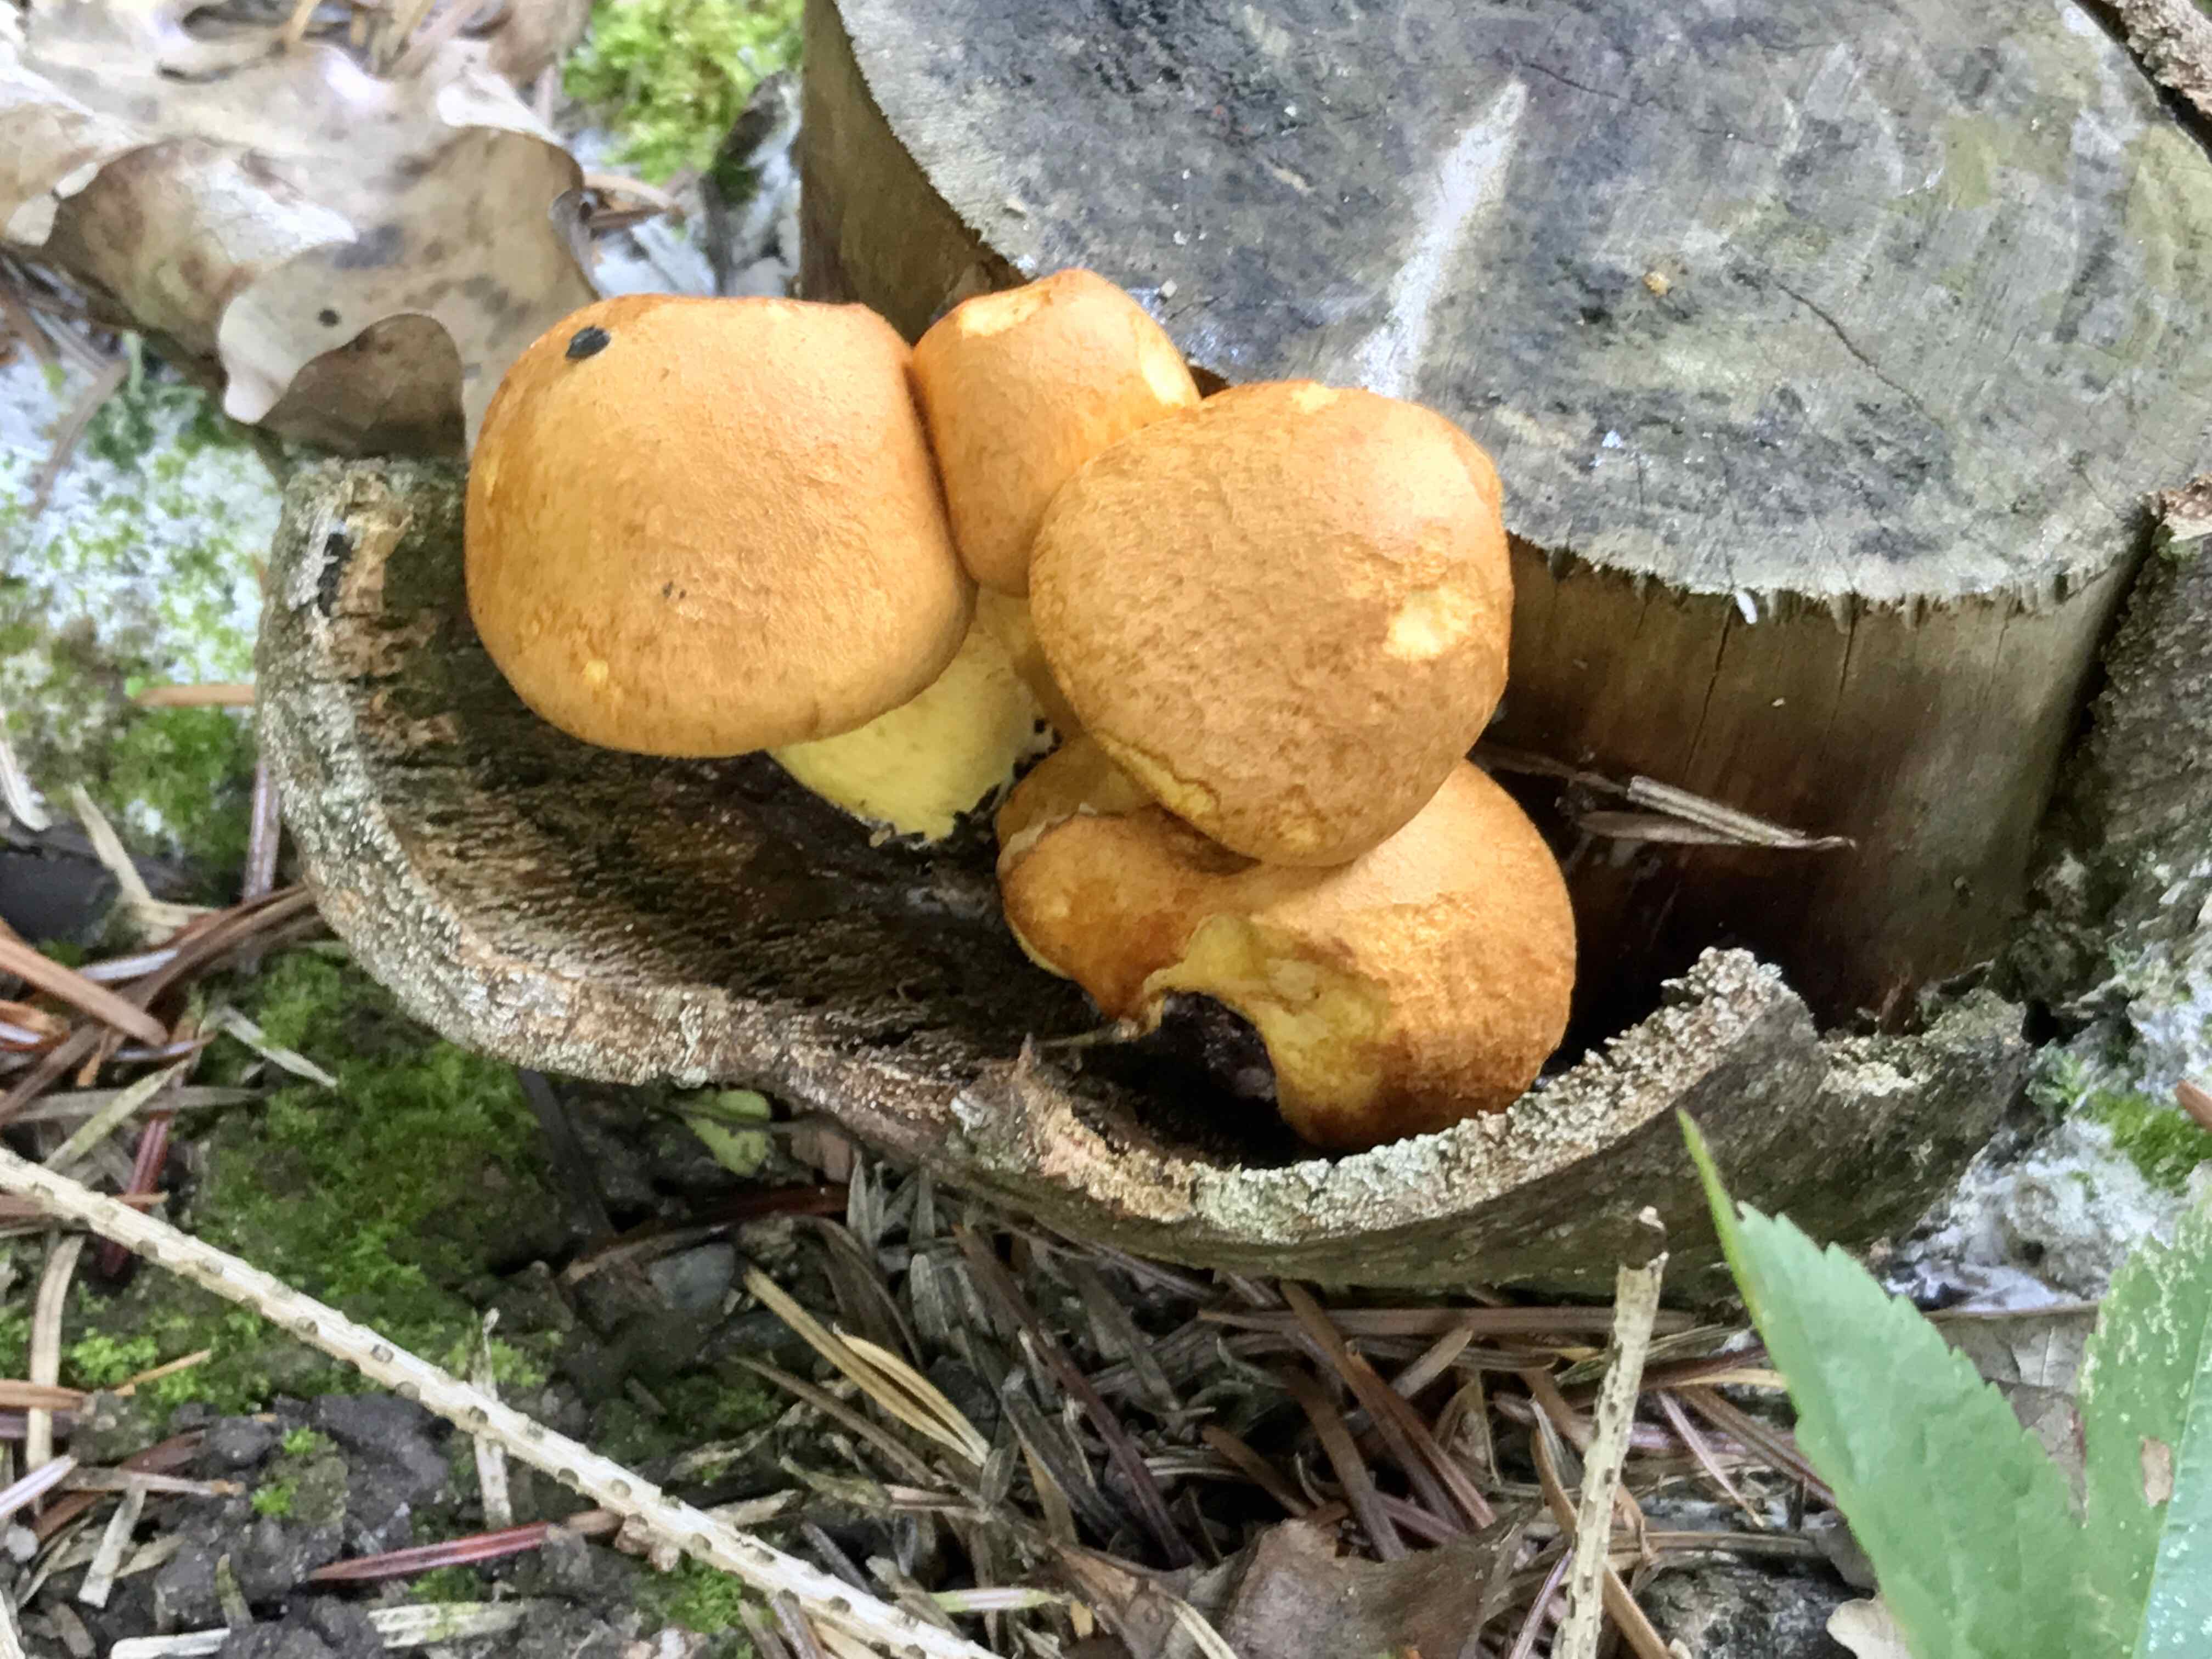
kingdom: Fungi
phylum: Basidiomycota
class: Agaricomycetes
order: Agaricales
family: Hymenogastraceae
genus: Gymnopilus
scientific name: Gymnopilus spectabilis
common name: fibret flammehat
